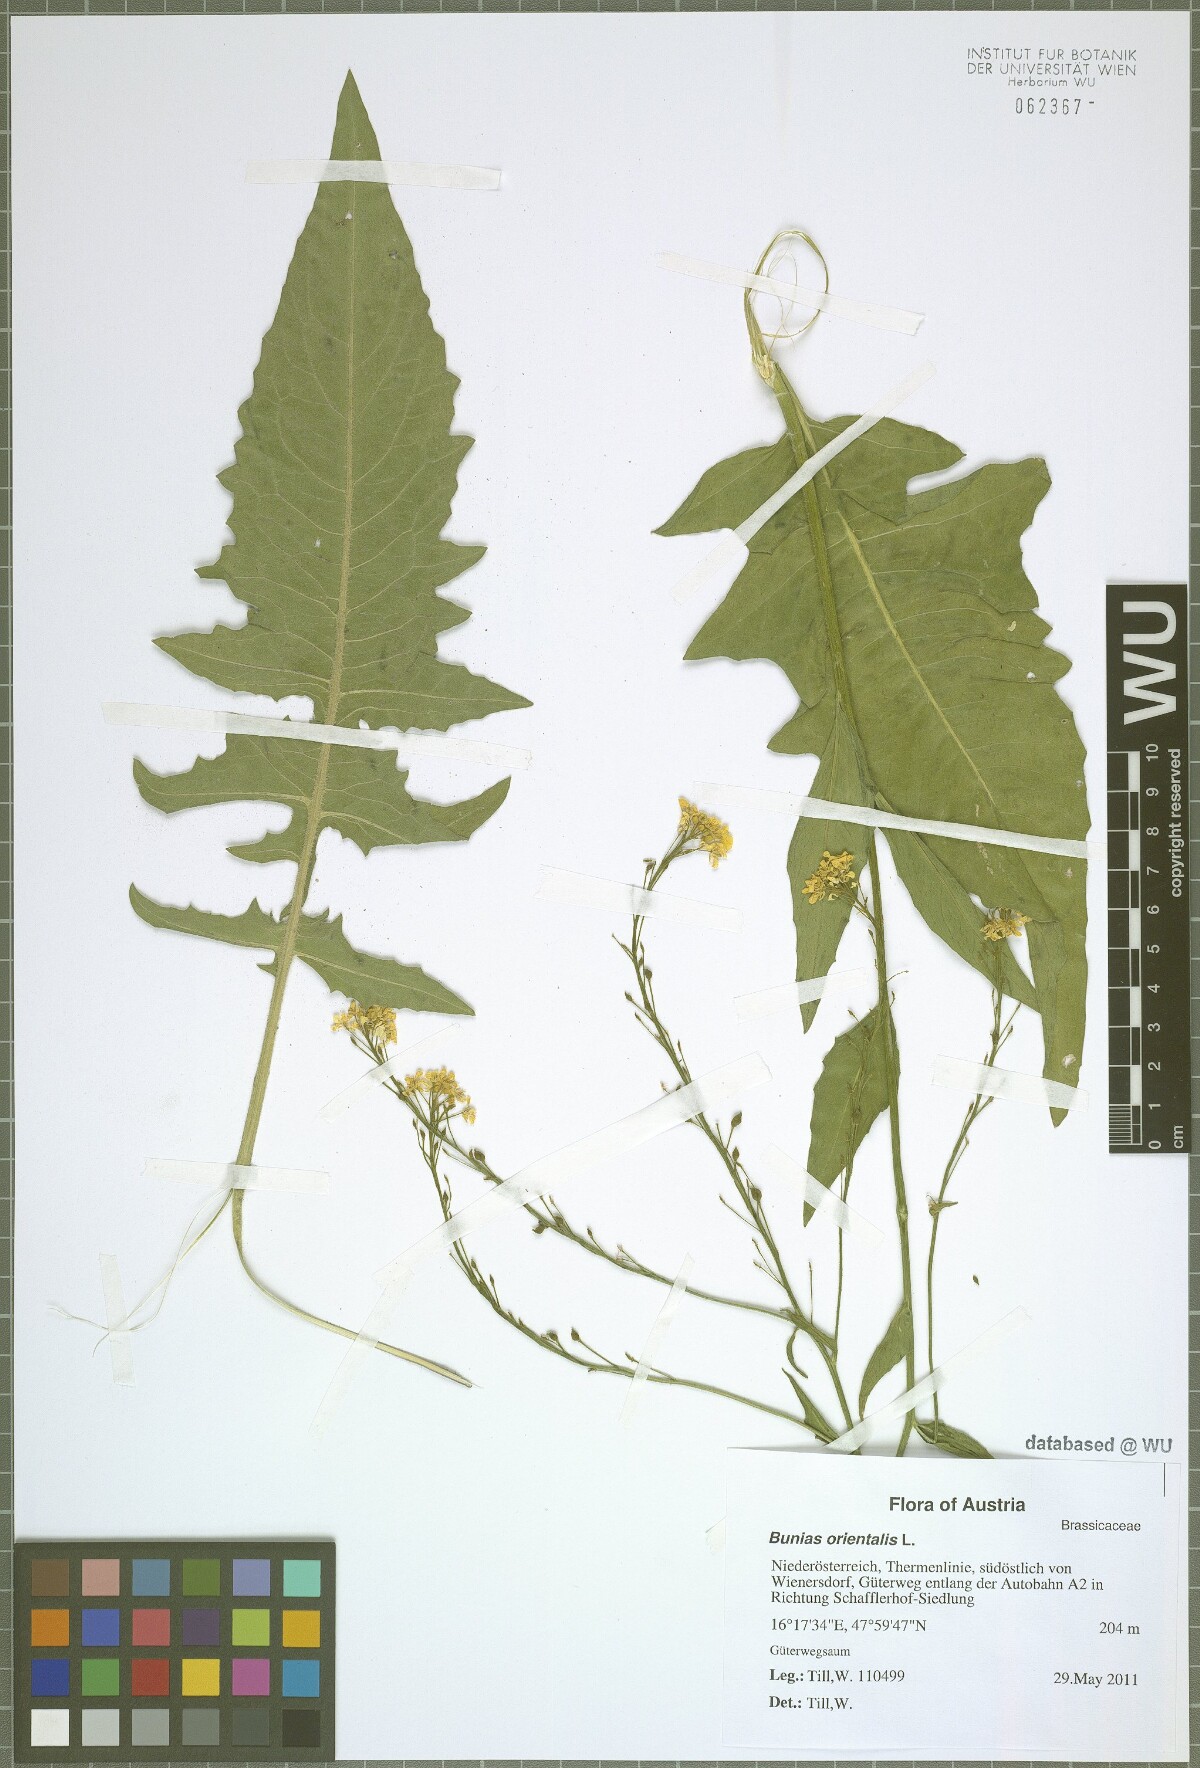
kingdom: Plantae
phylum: Tracheophyta
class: Magnoliopsida
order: Brassicales
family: Brassicaceae
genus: Bunias
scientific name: Bunias orientalis
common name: Warty-cabbage
